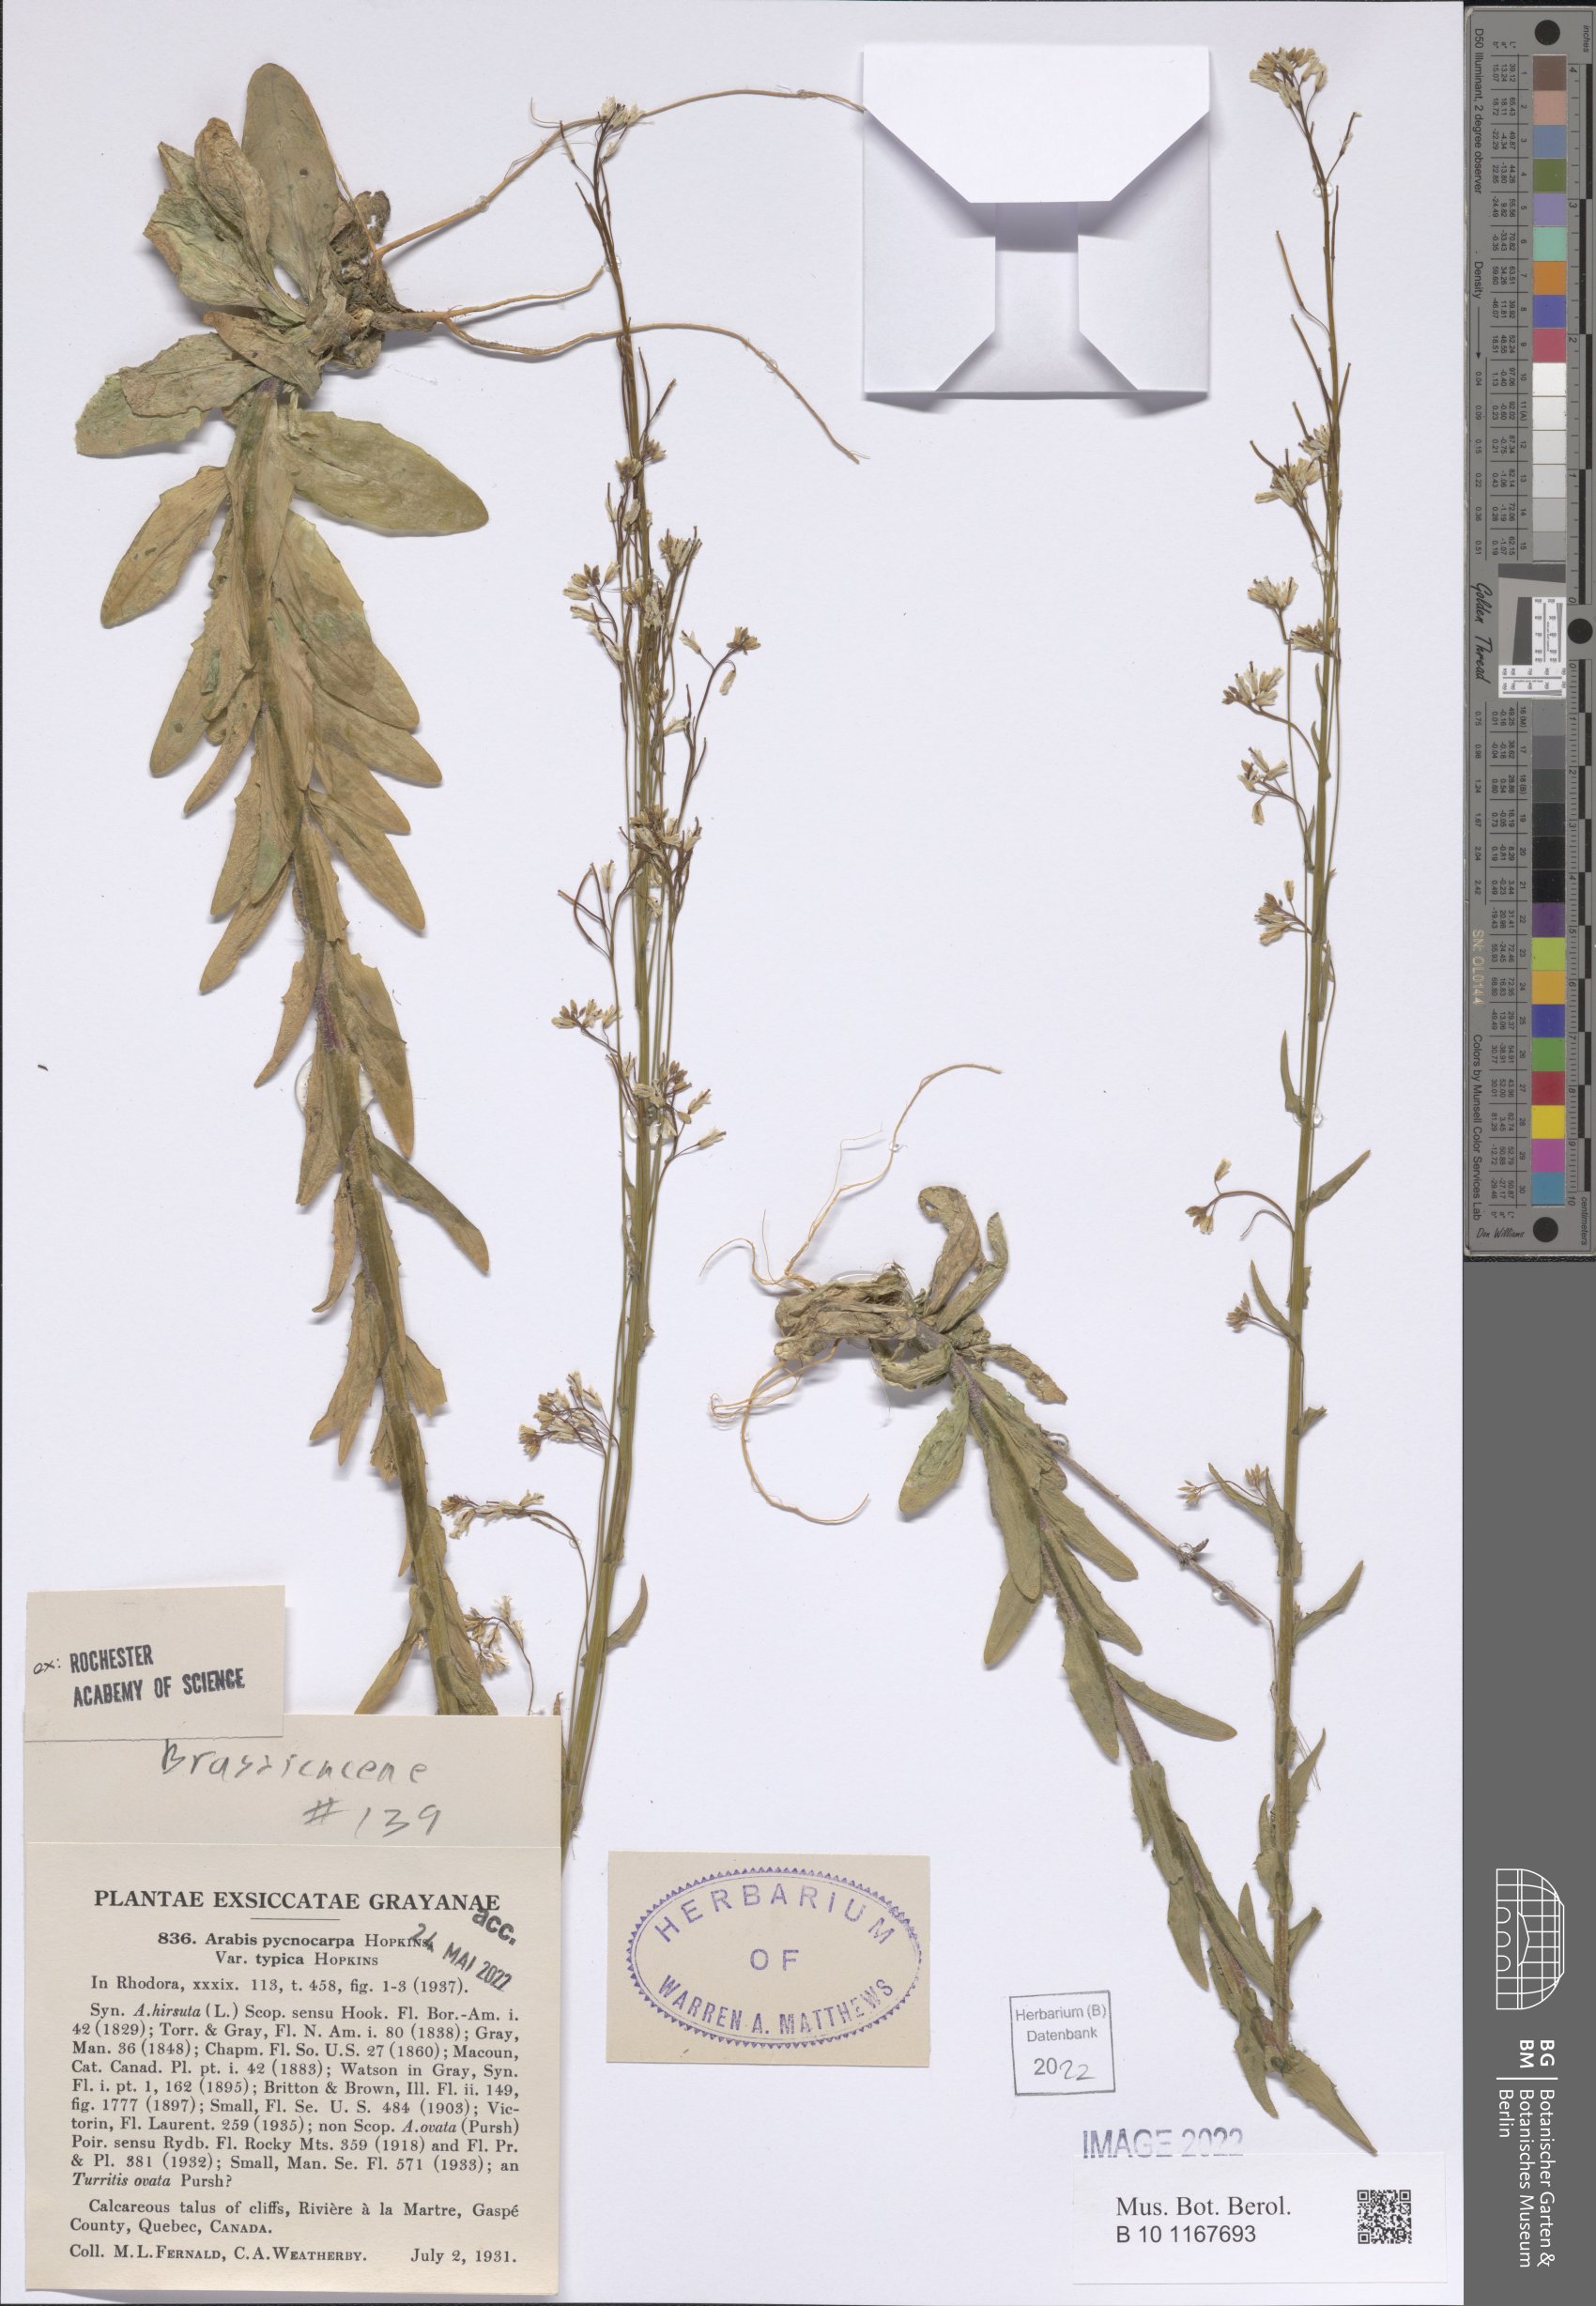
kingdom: Plantae
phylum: Tracheophyta
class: Magnoliopsida
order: Brassicales
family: Brassicaceae
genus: Arabis
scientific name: Arabis pycnocarpa
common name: Blushing rockcress
